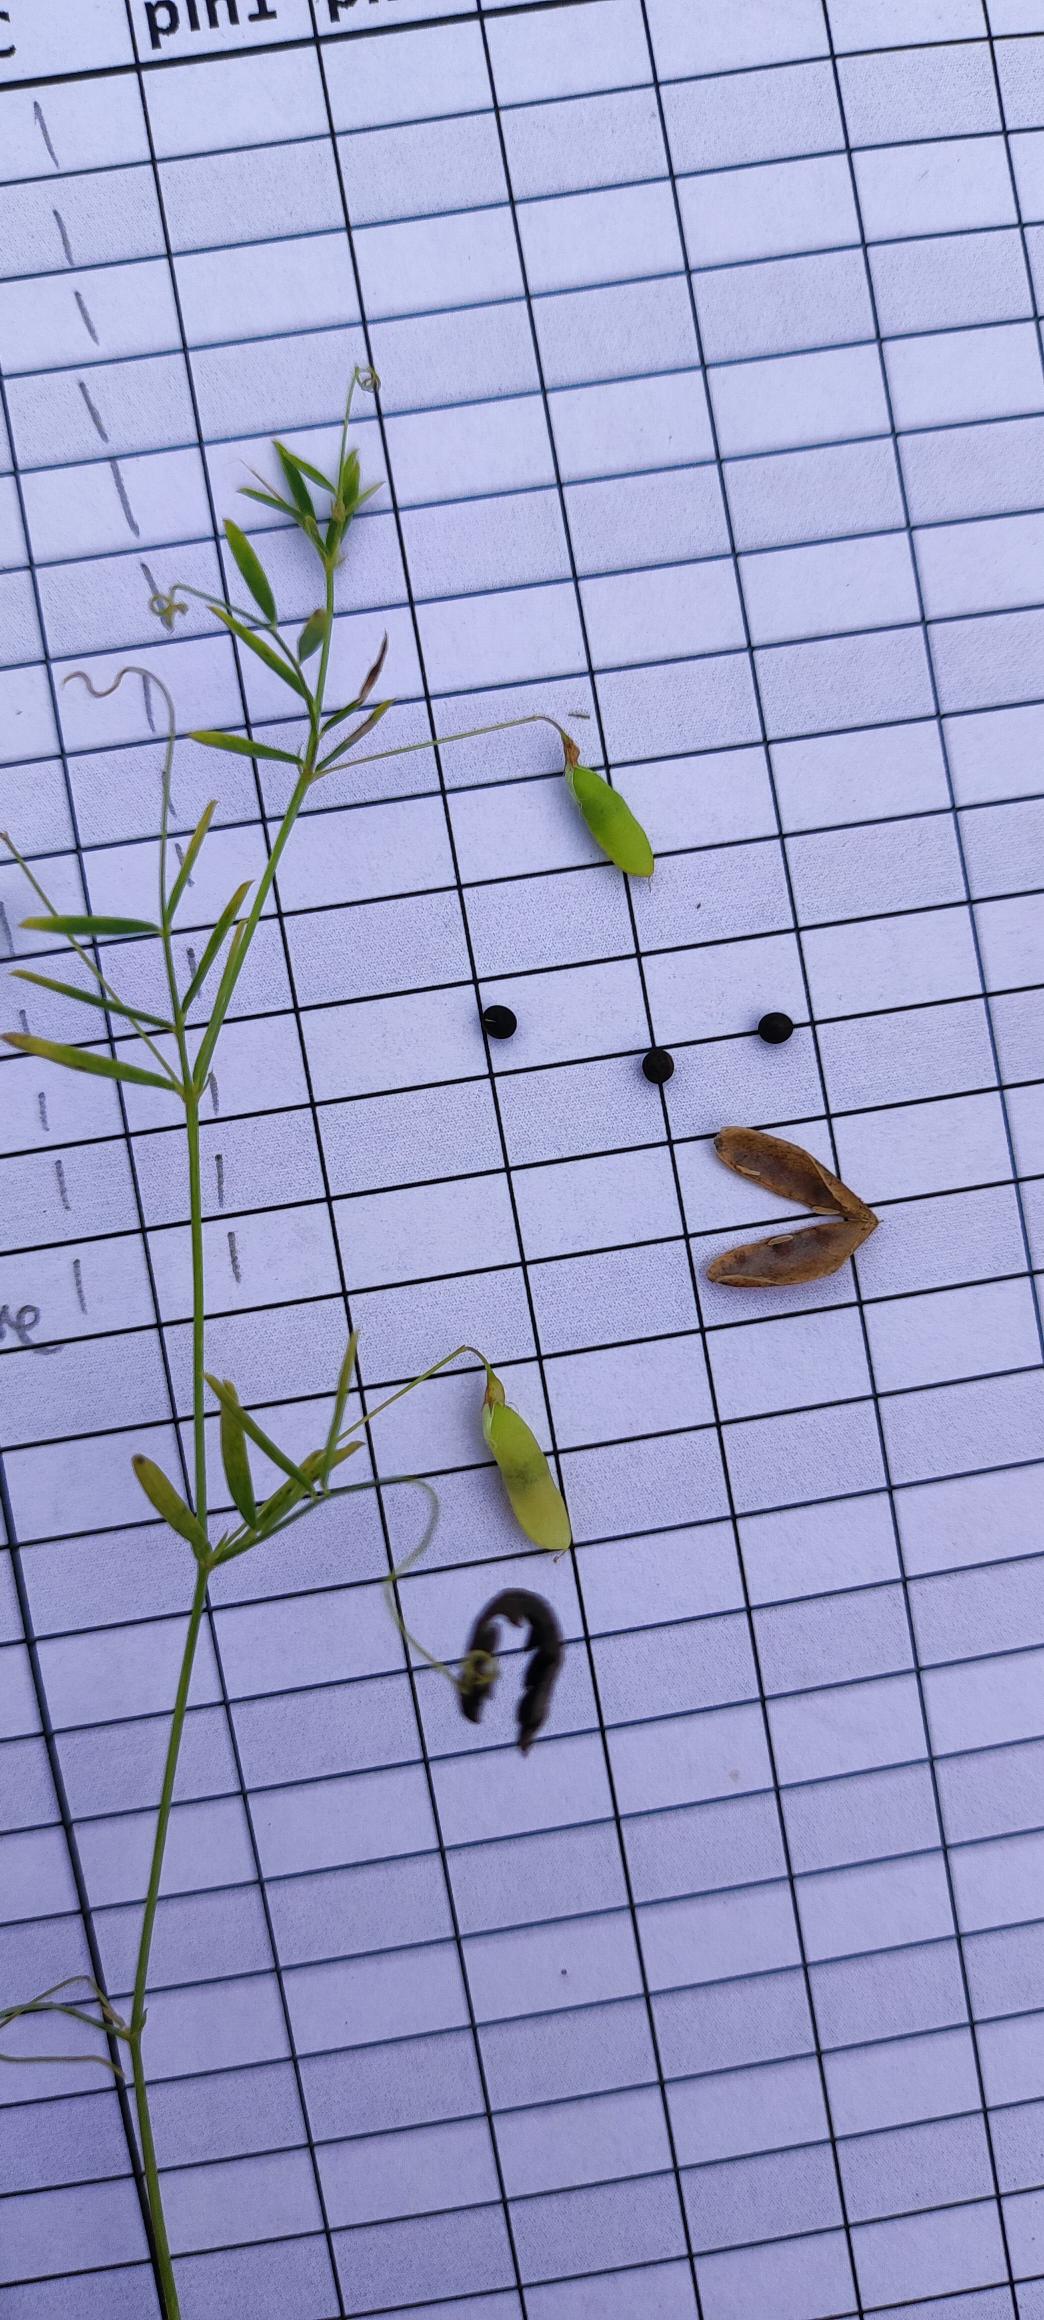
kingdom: Plantae
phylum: Tracheophyta
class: Magnoliopsida
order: Fabales
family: Fabaceae
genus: Vicia
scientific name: Vicia tetrasperma
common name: Tadder-vikke
